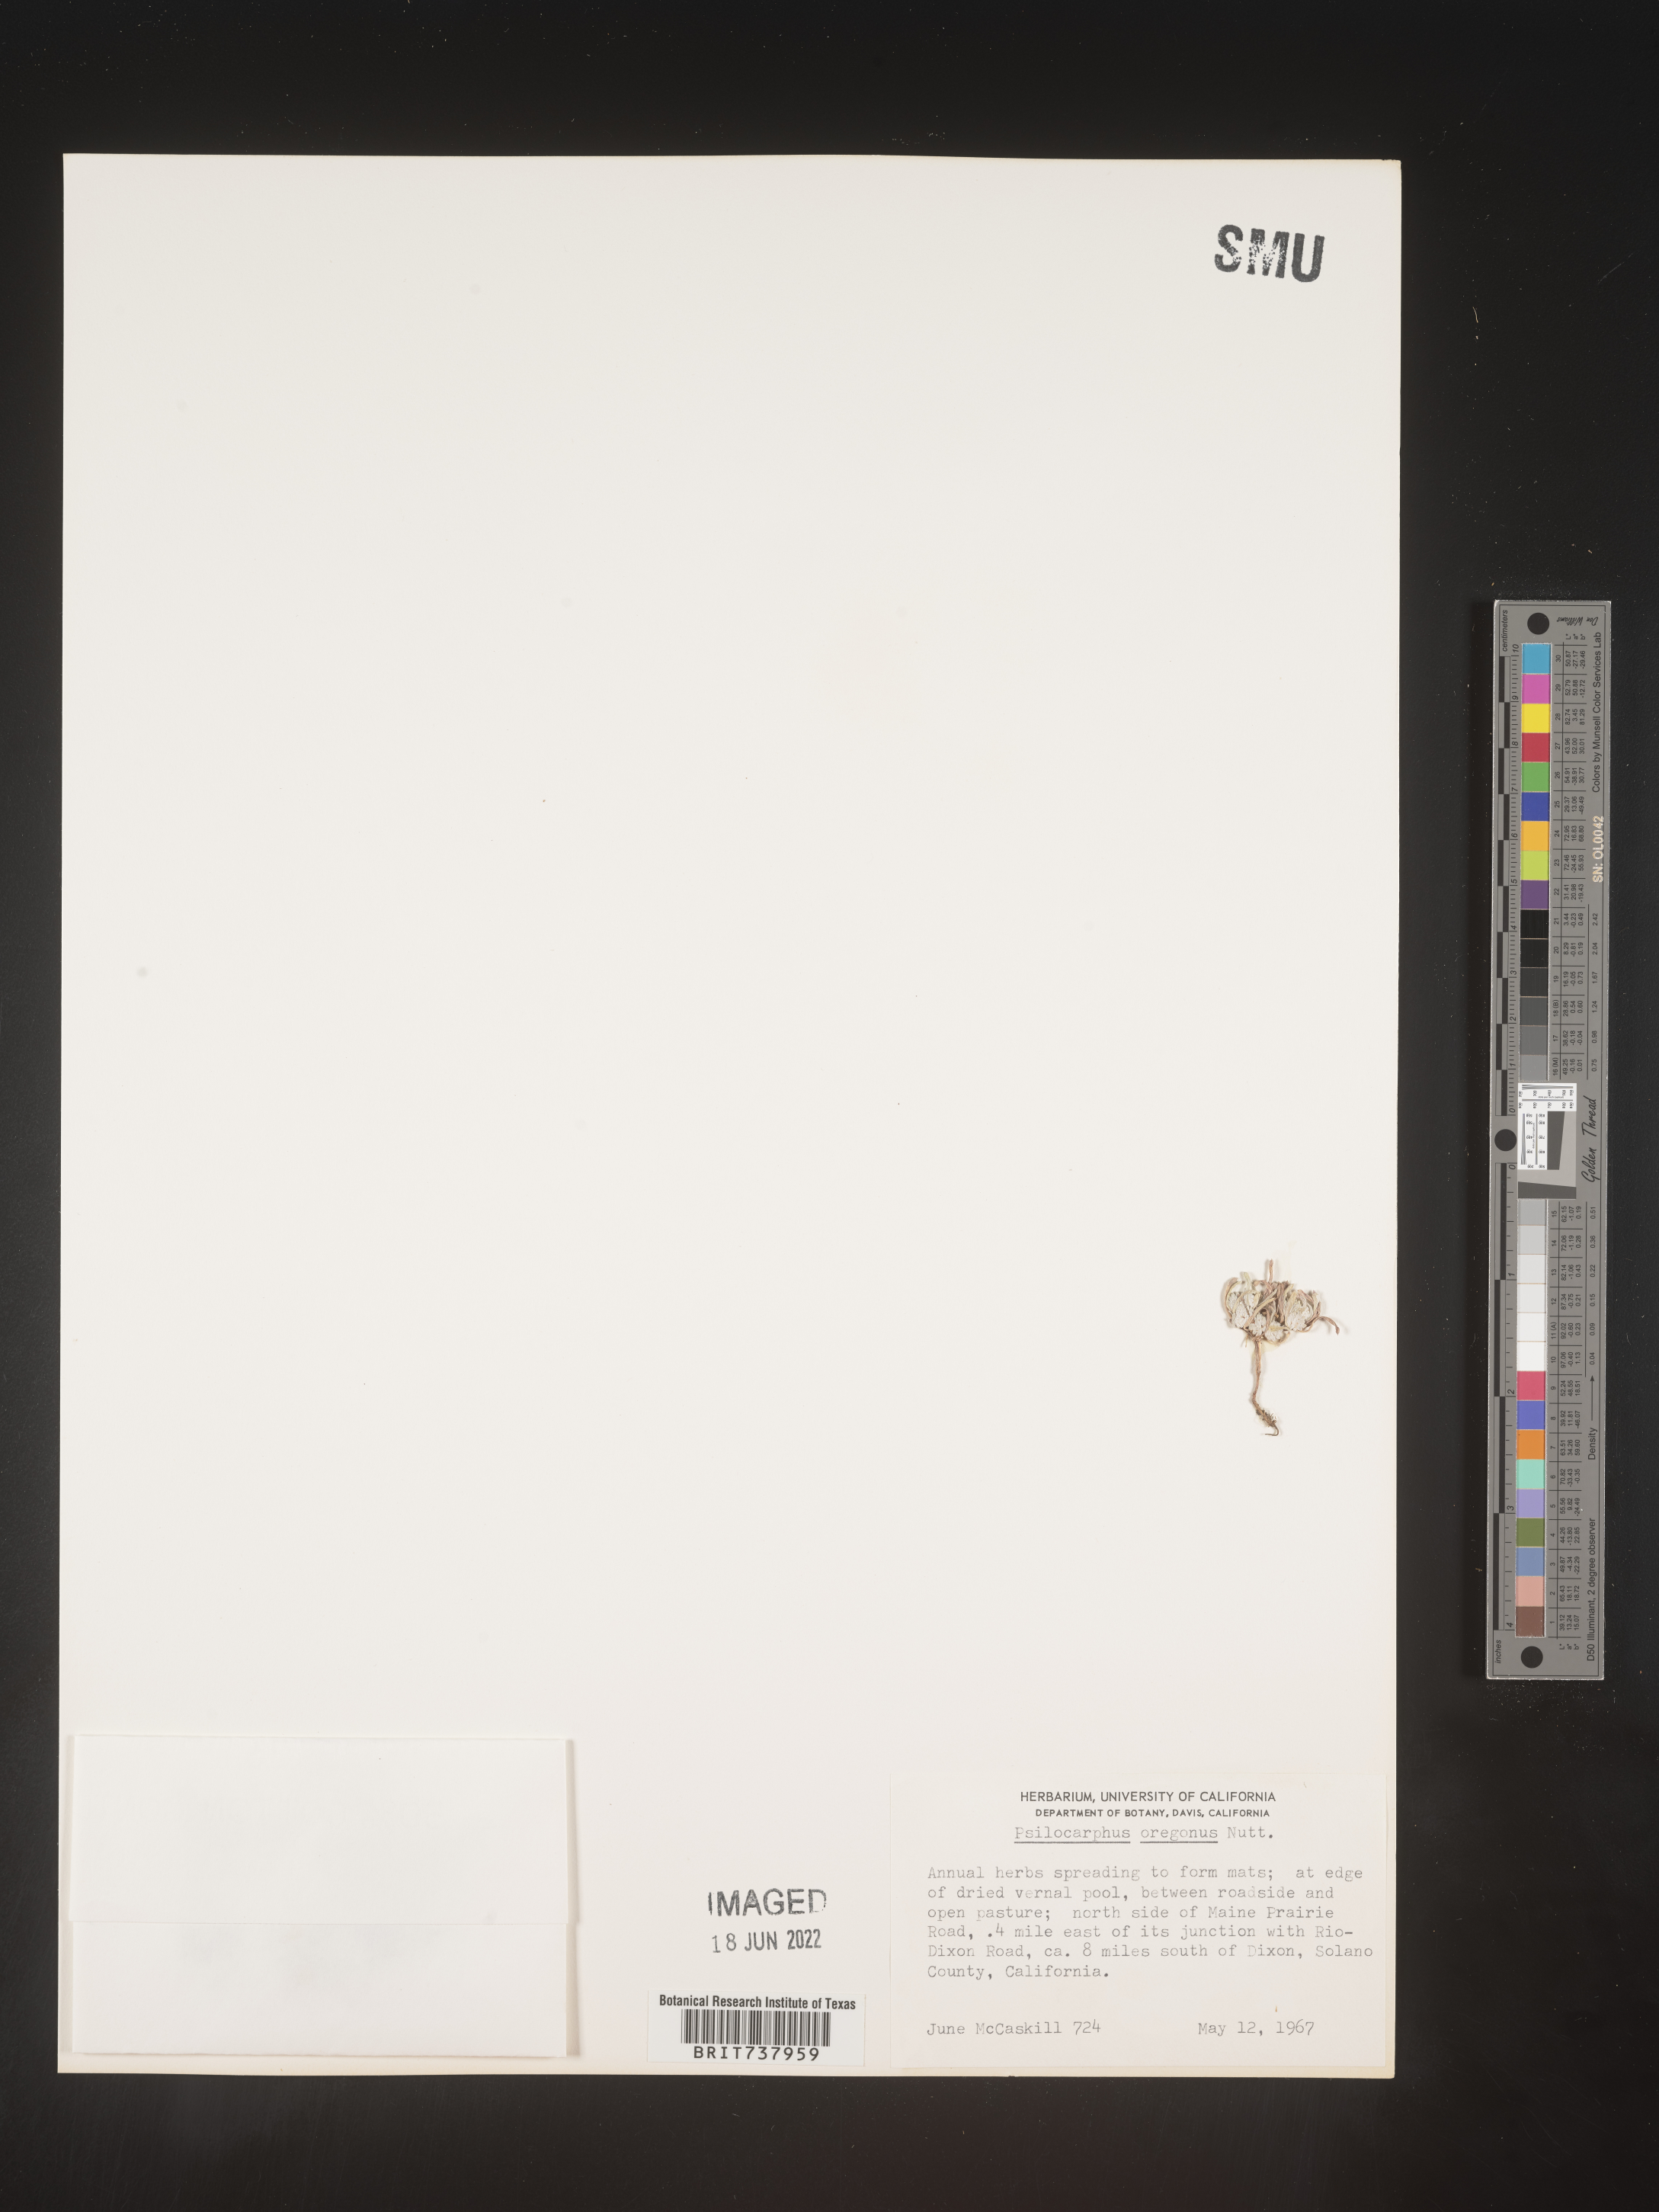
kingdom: Plantae
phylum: Tracheophyta
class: Magnoliopsida
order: Asterales
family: Asteraceae
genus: Psilocarphus
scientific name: Psilocarphus
